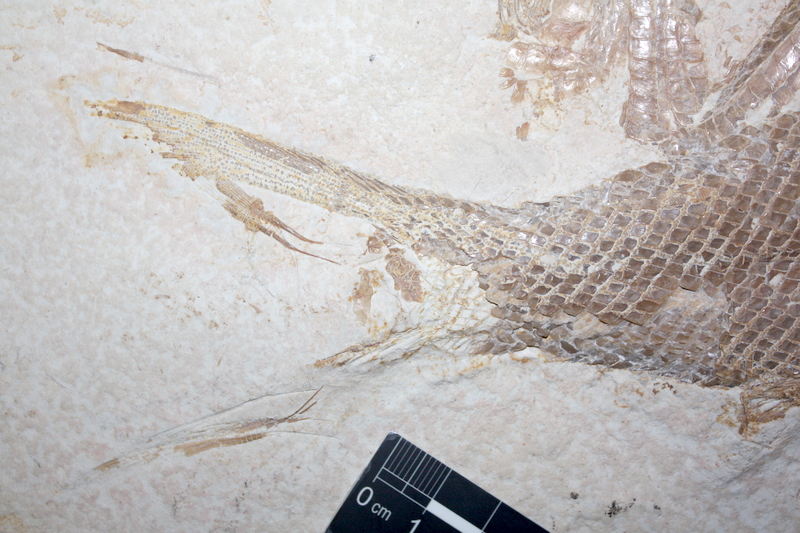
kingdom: Animalia
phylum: Chordata
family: Ophiopsiellidae
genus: Ophiopsiella
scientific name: Ophiopsiella
